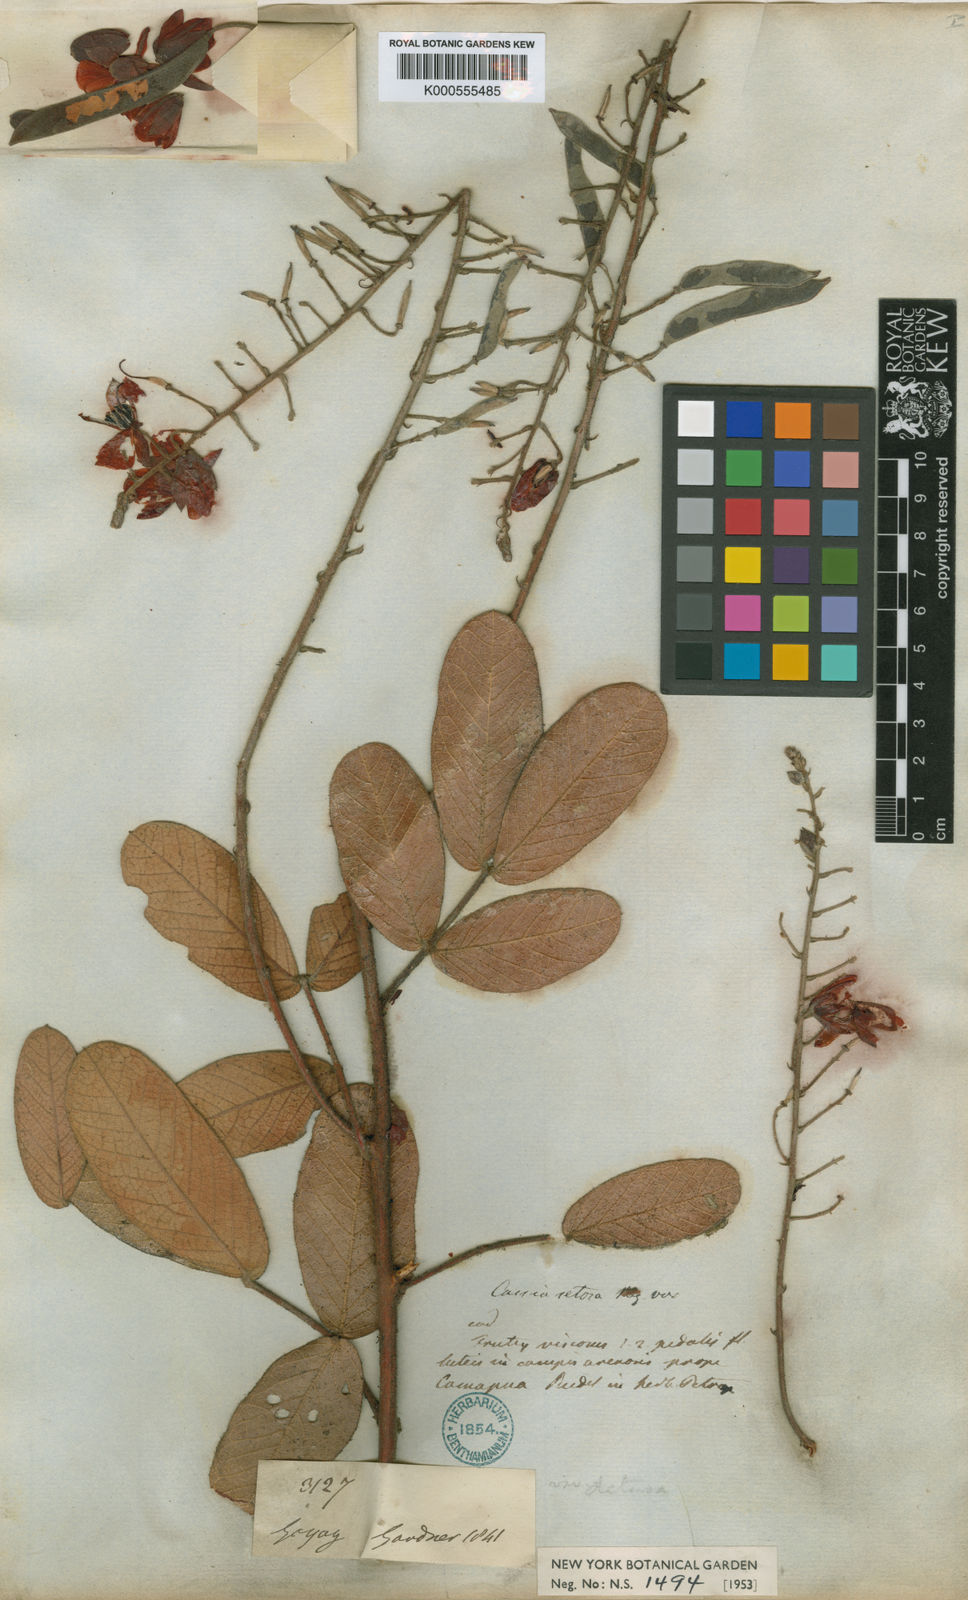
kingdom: Plantae
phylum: Tracheophyta
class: Magnoliopsida
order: Fabales
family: Fabaceae
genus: Chamaecrista
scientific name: Chamaecrista setosa
